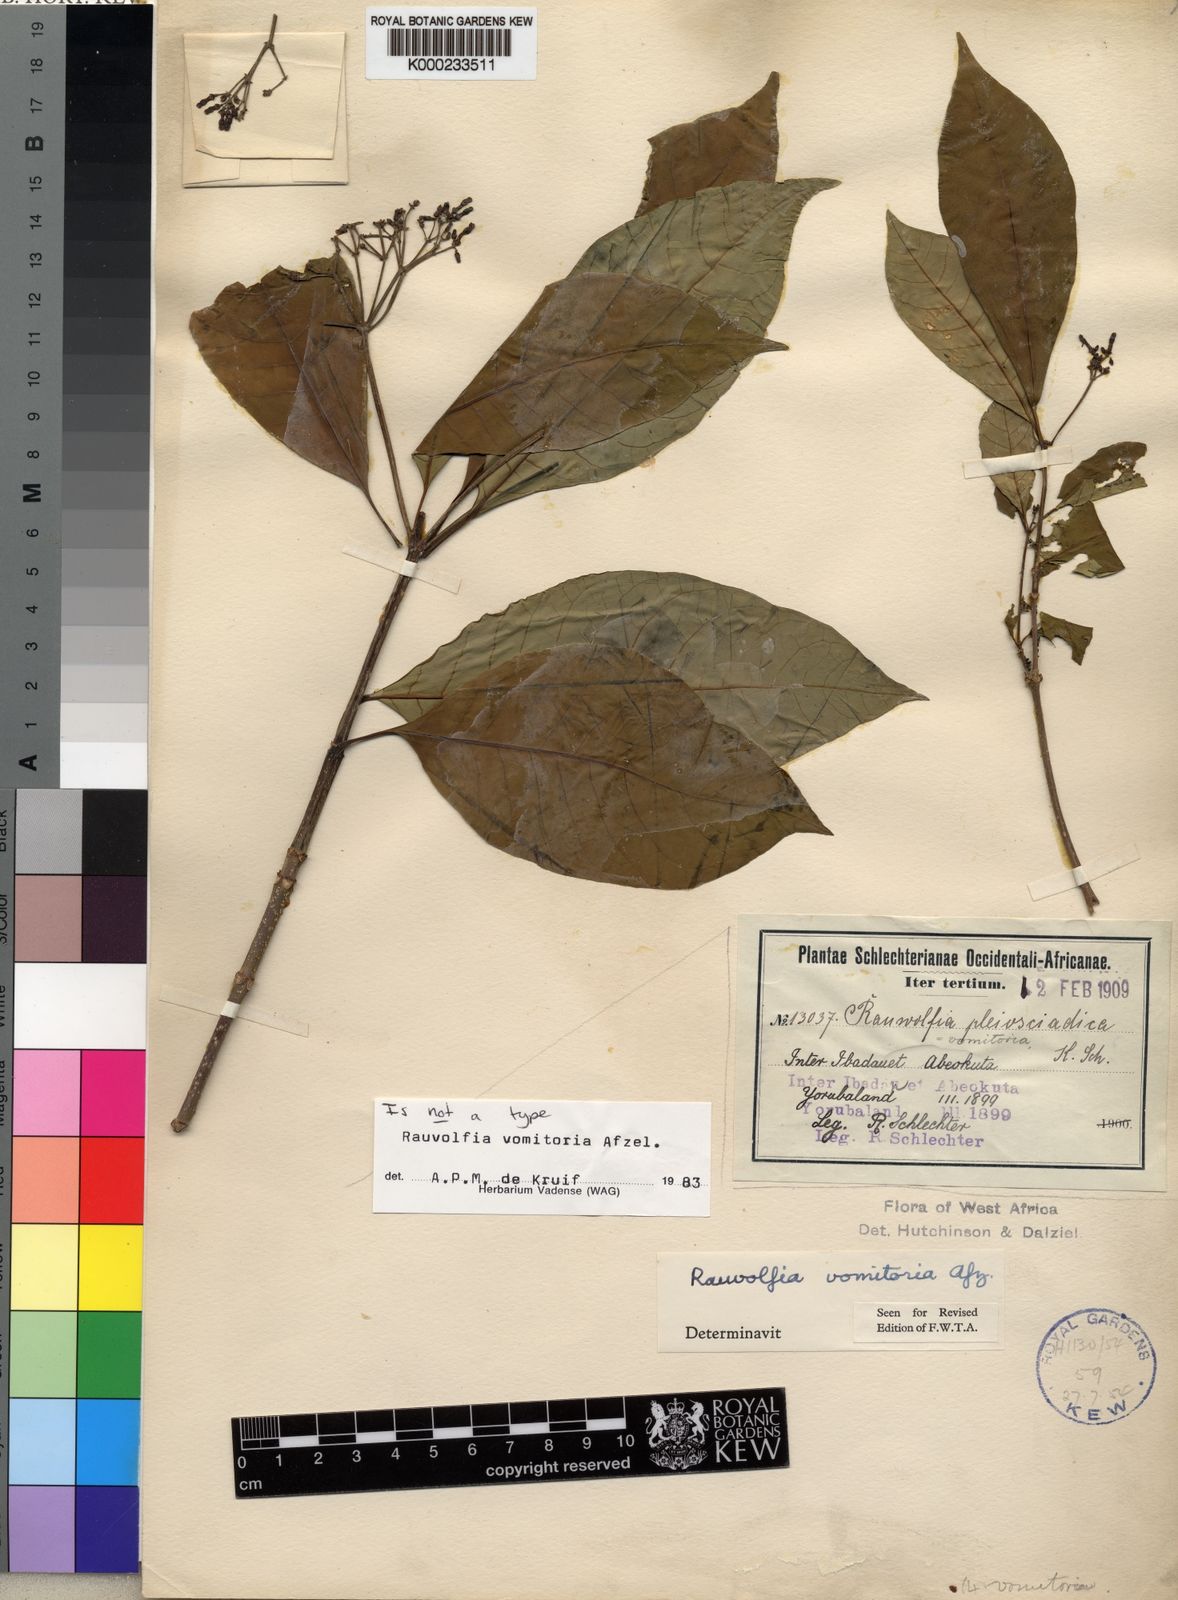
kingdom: Plantae
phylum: Tracheophyta
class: Magnoliopsida
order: Gentianales
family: Apocynaceae
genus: Rauvolfia
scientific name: Rauvolfia
